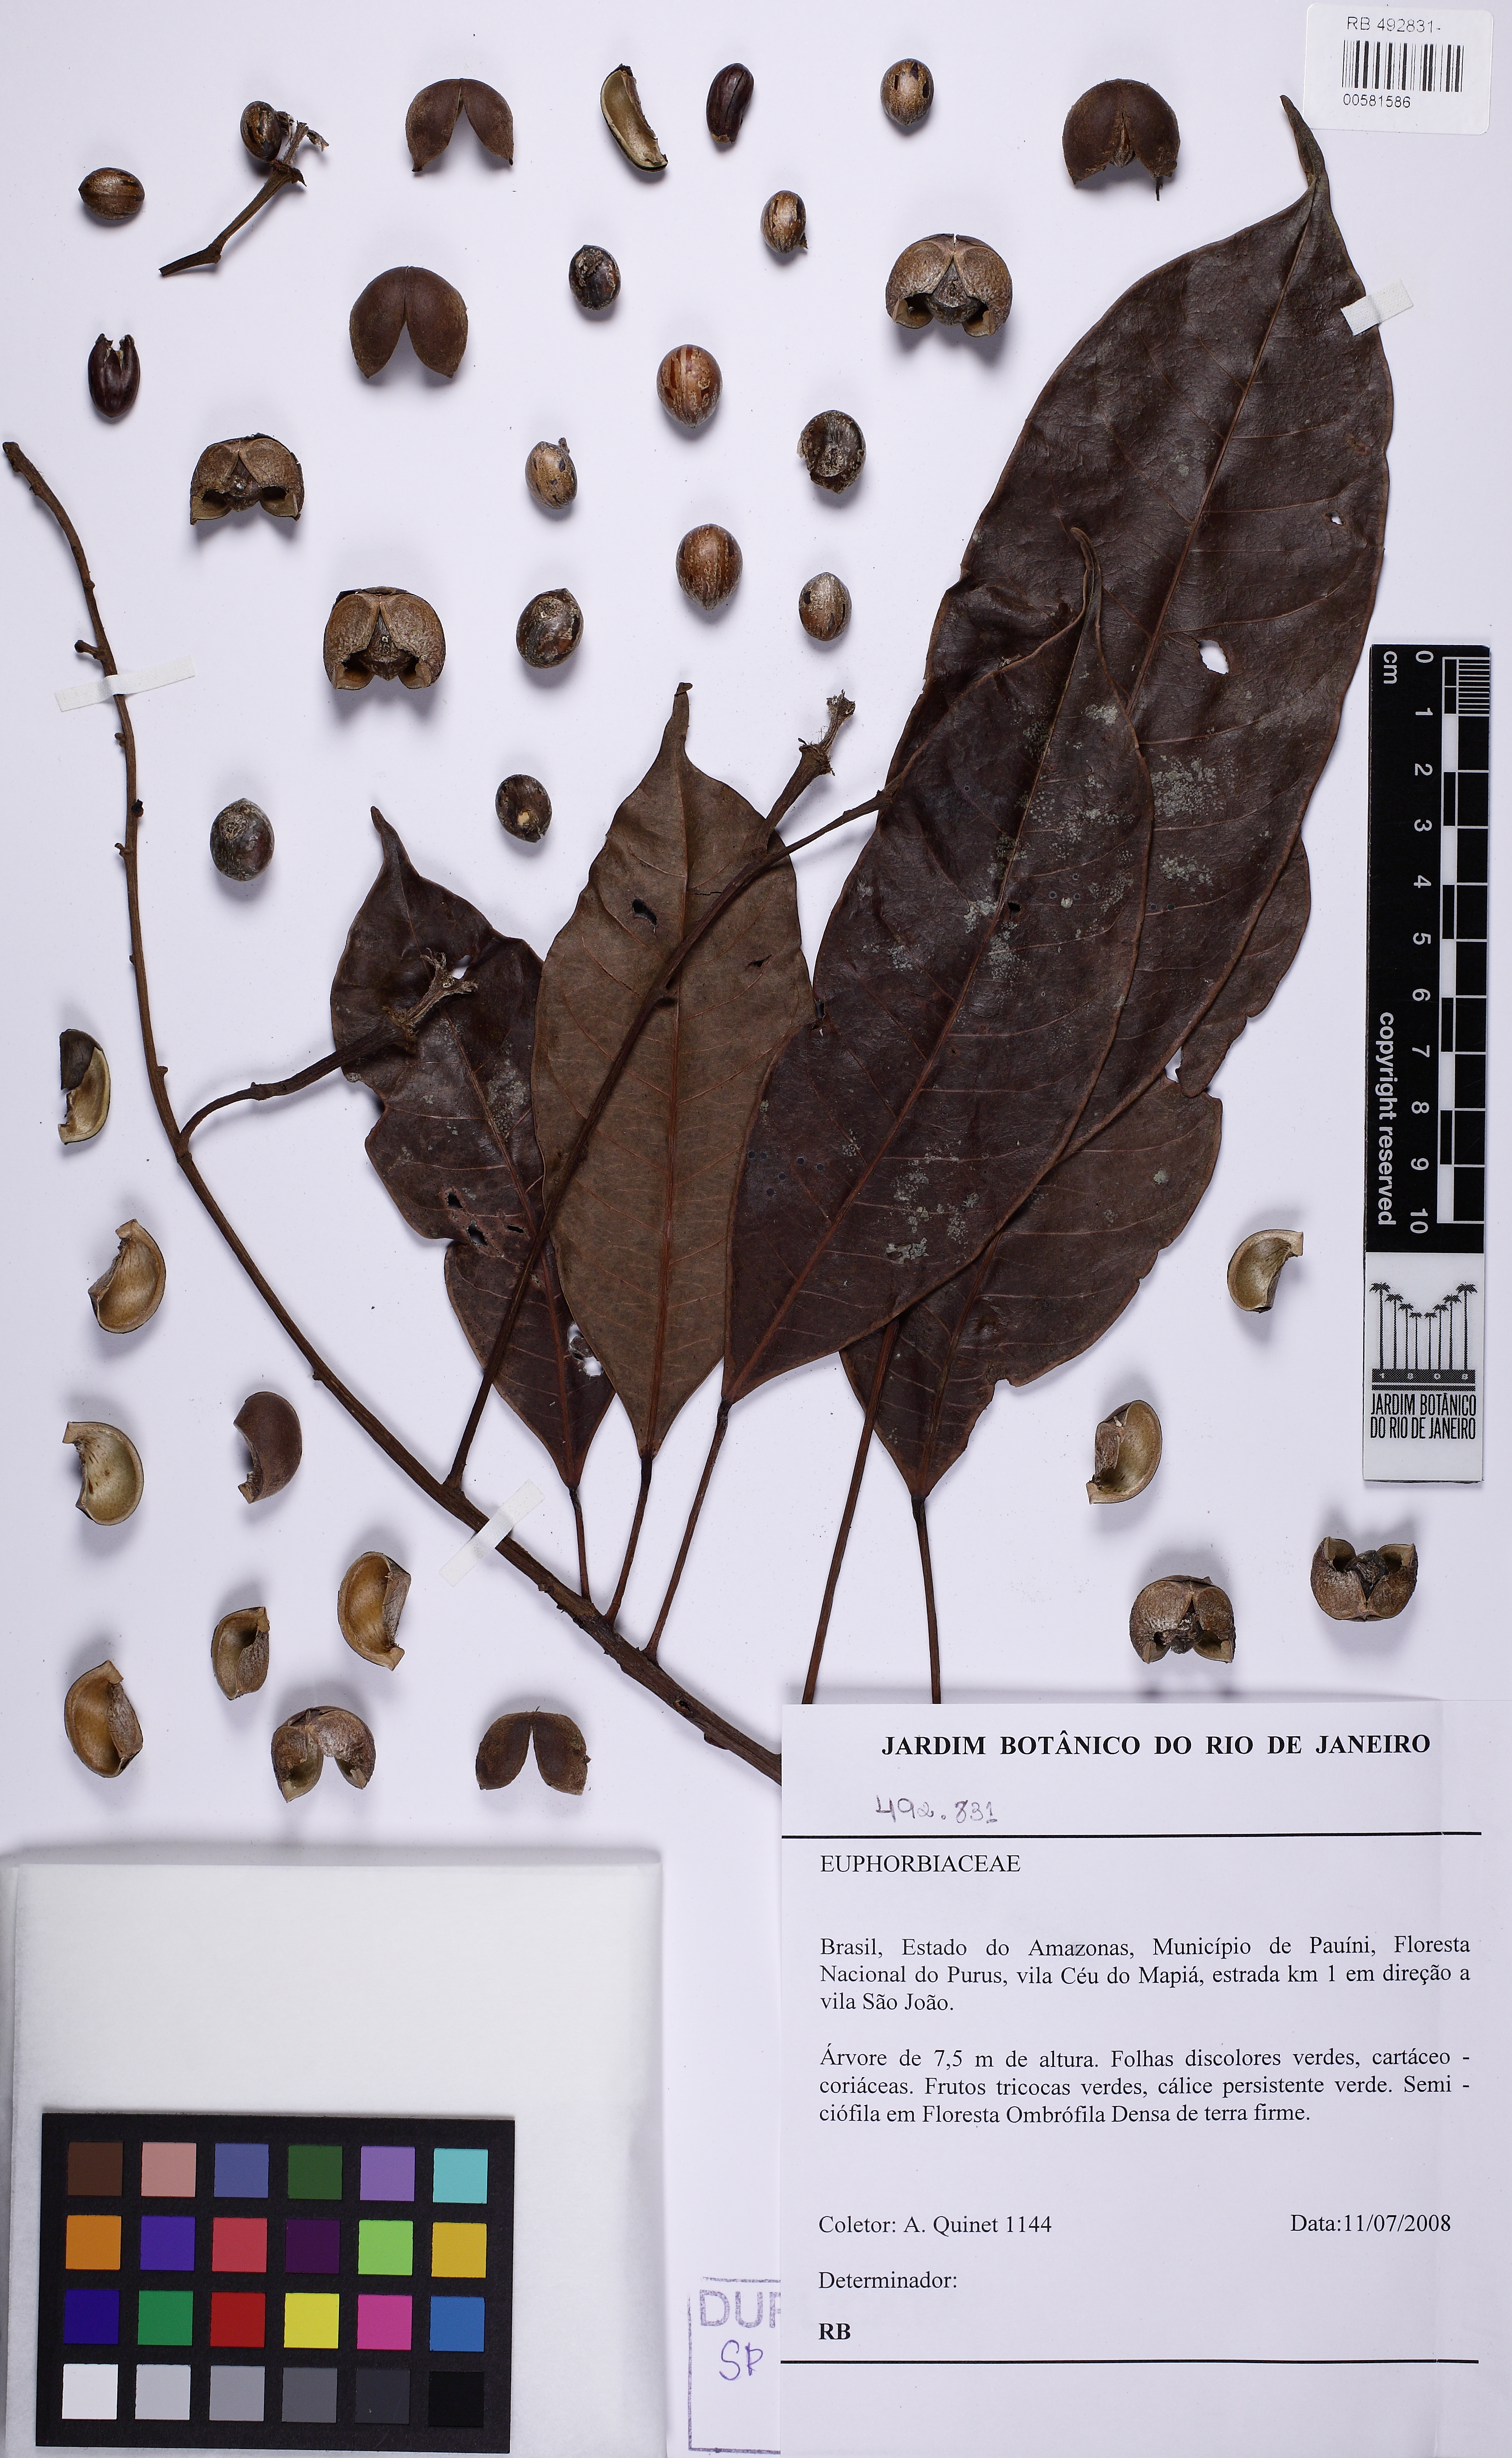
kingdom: Plantae
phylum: Tracheophyta
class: Magnoliopsida
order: Malpighiales
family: Euphorbiaceae
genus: Dodecastigma
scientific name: Dodecastigma uleanum
